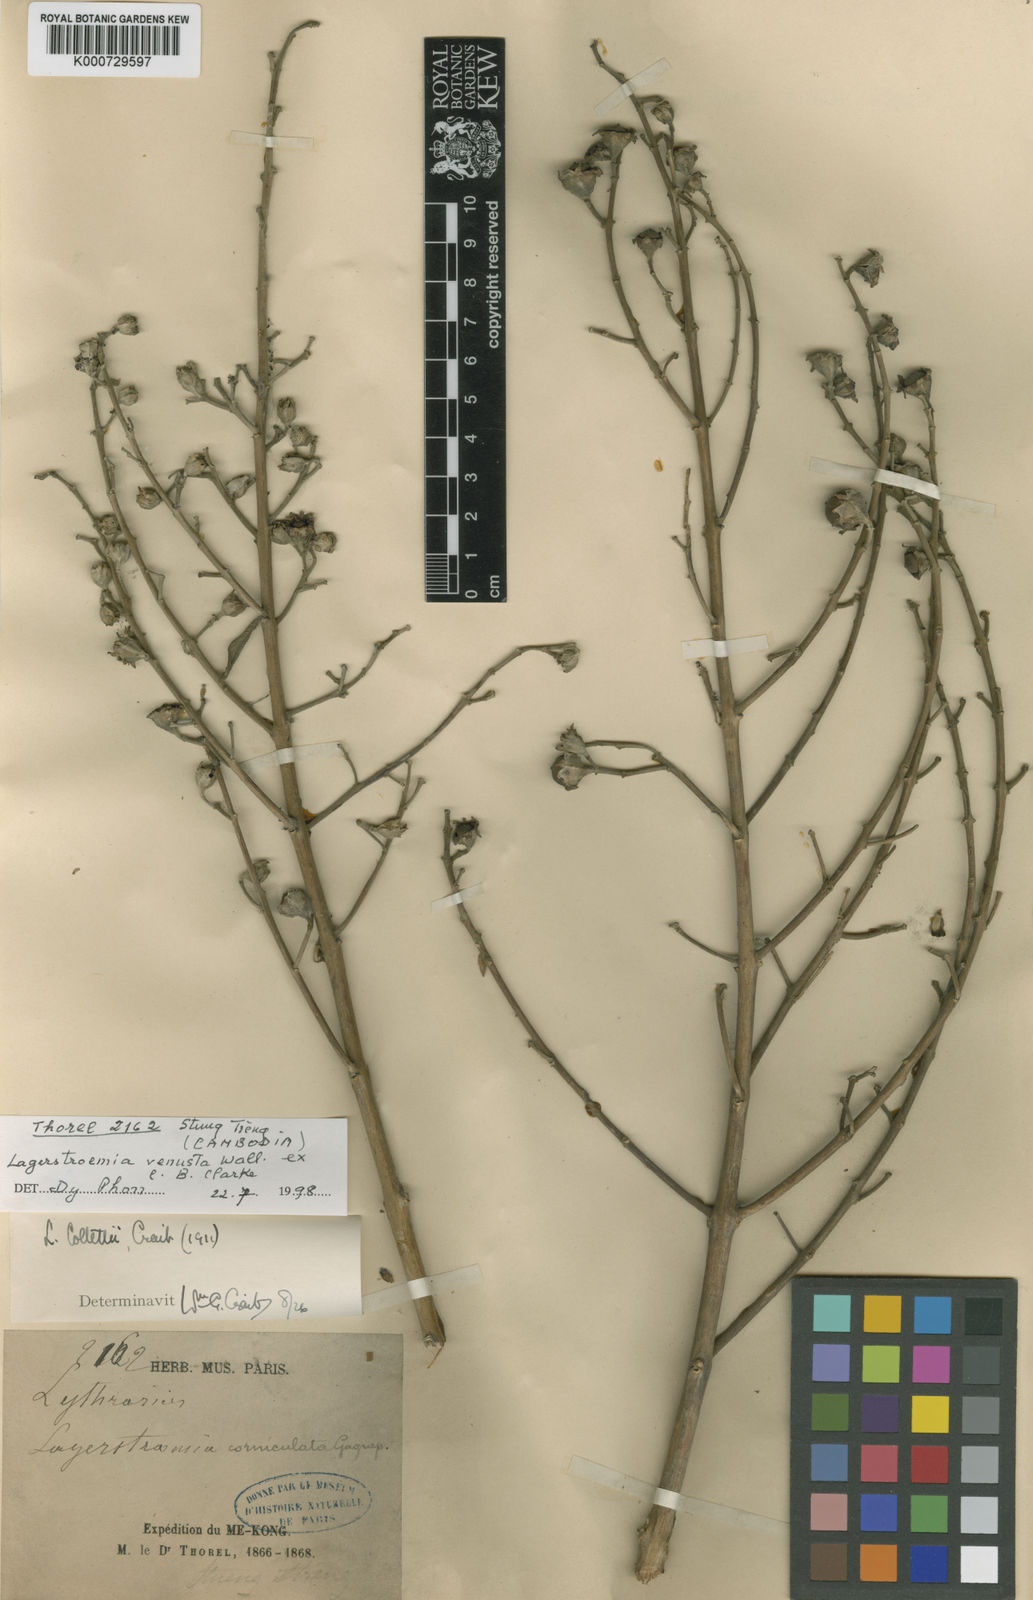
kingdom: Plantae
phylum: Tracheophyta
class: Magnoliopsida
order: Myrtales
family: Lythraceae
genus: Lagerstroemia
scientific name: Lagerstroemia venusta
